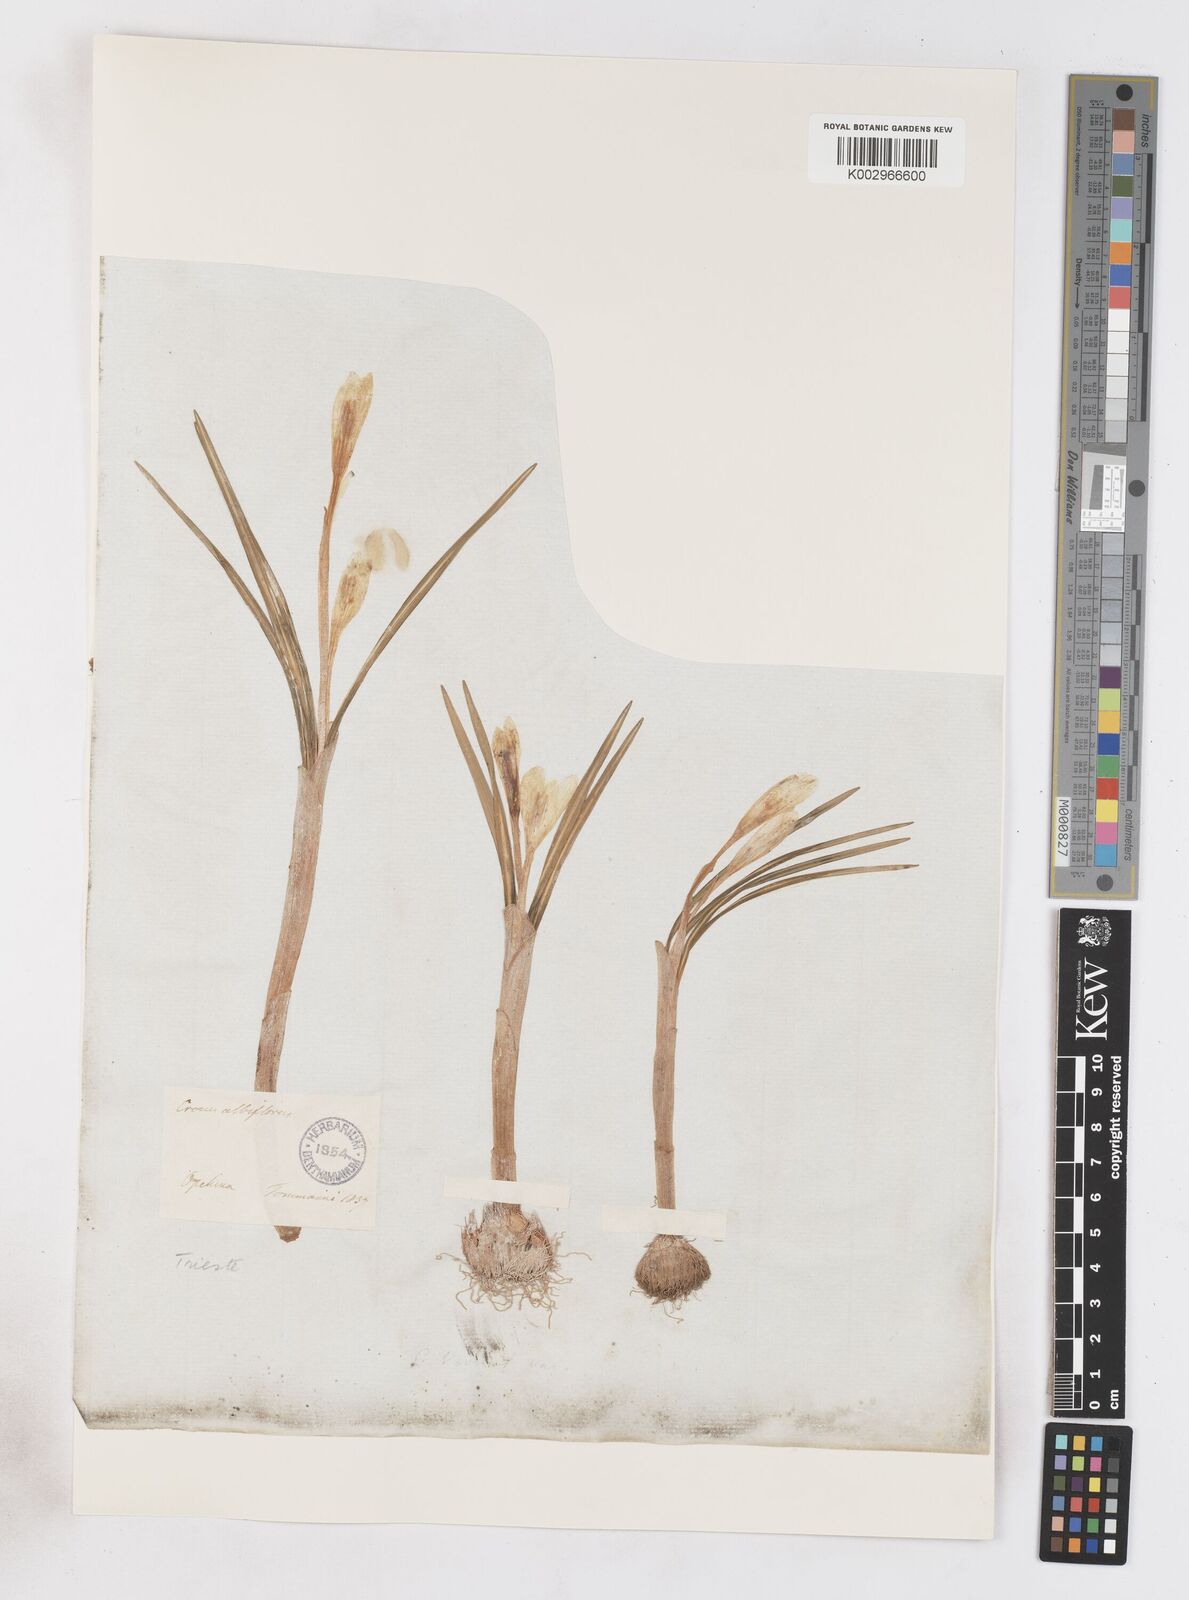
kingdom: Plantae
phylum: Tracheophyta
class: Liliopsida
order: Asparagales
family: Iridaceae
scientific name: Iridaceae
